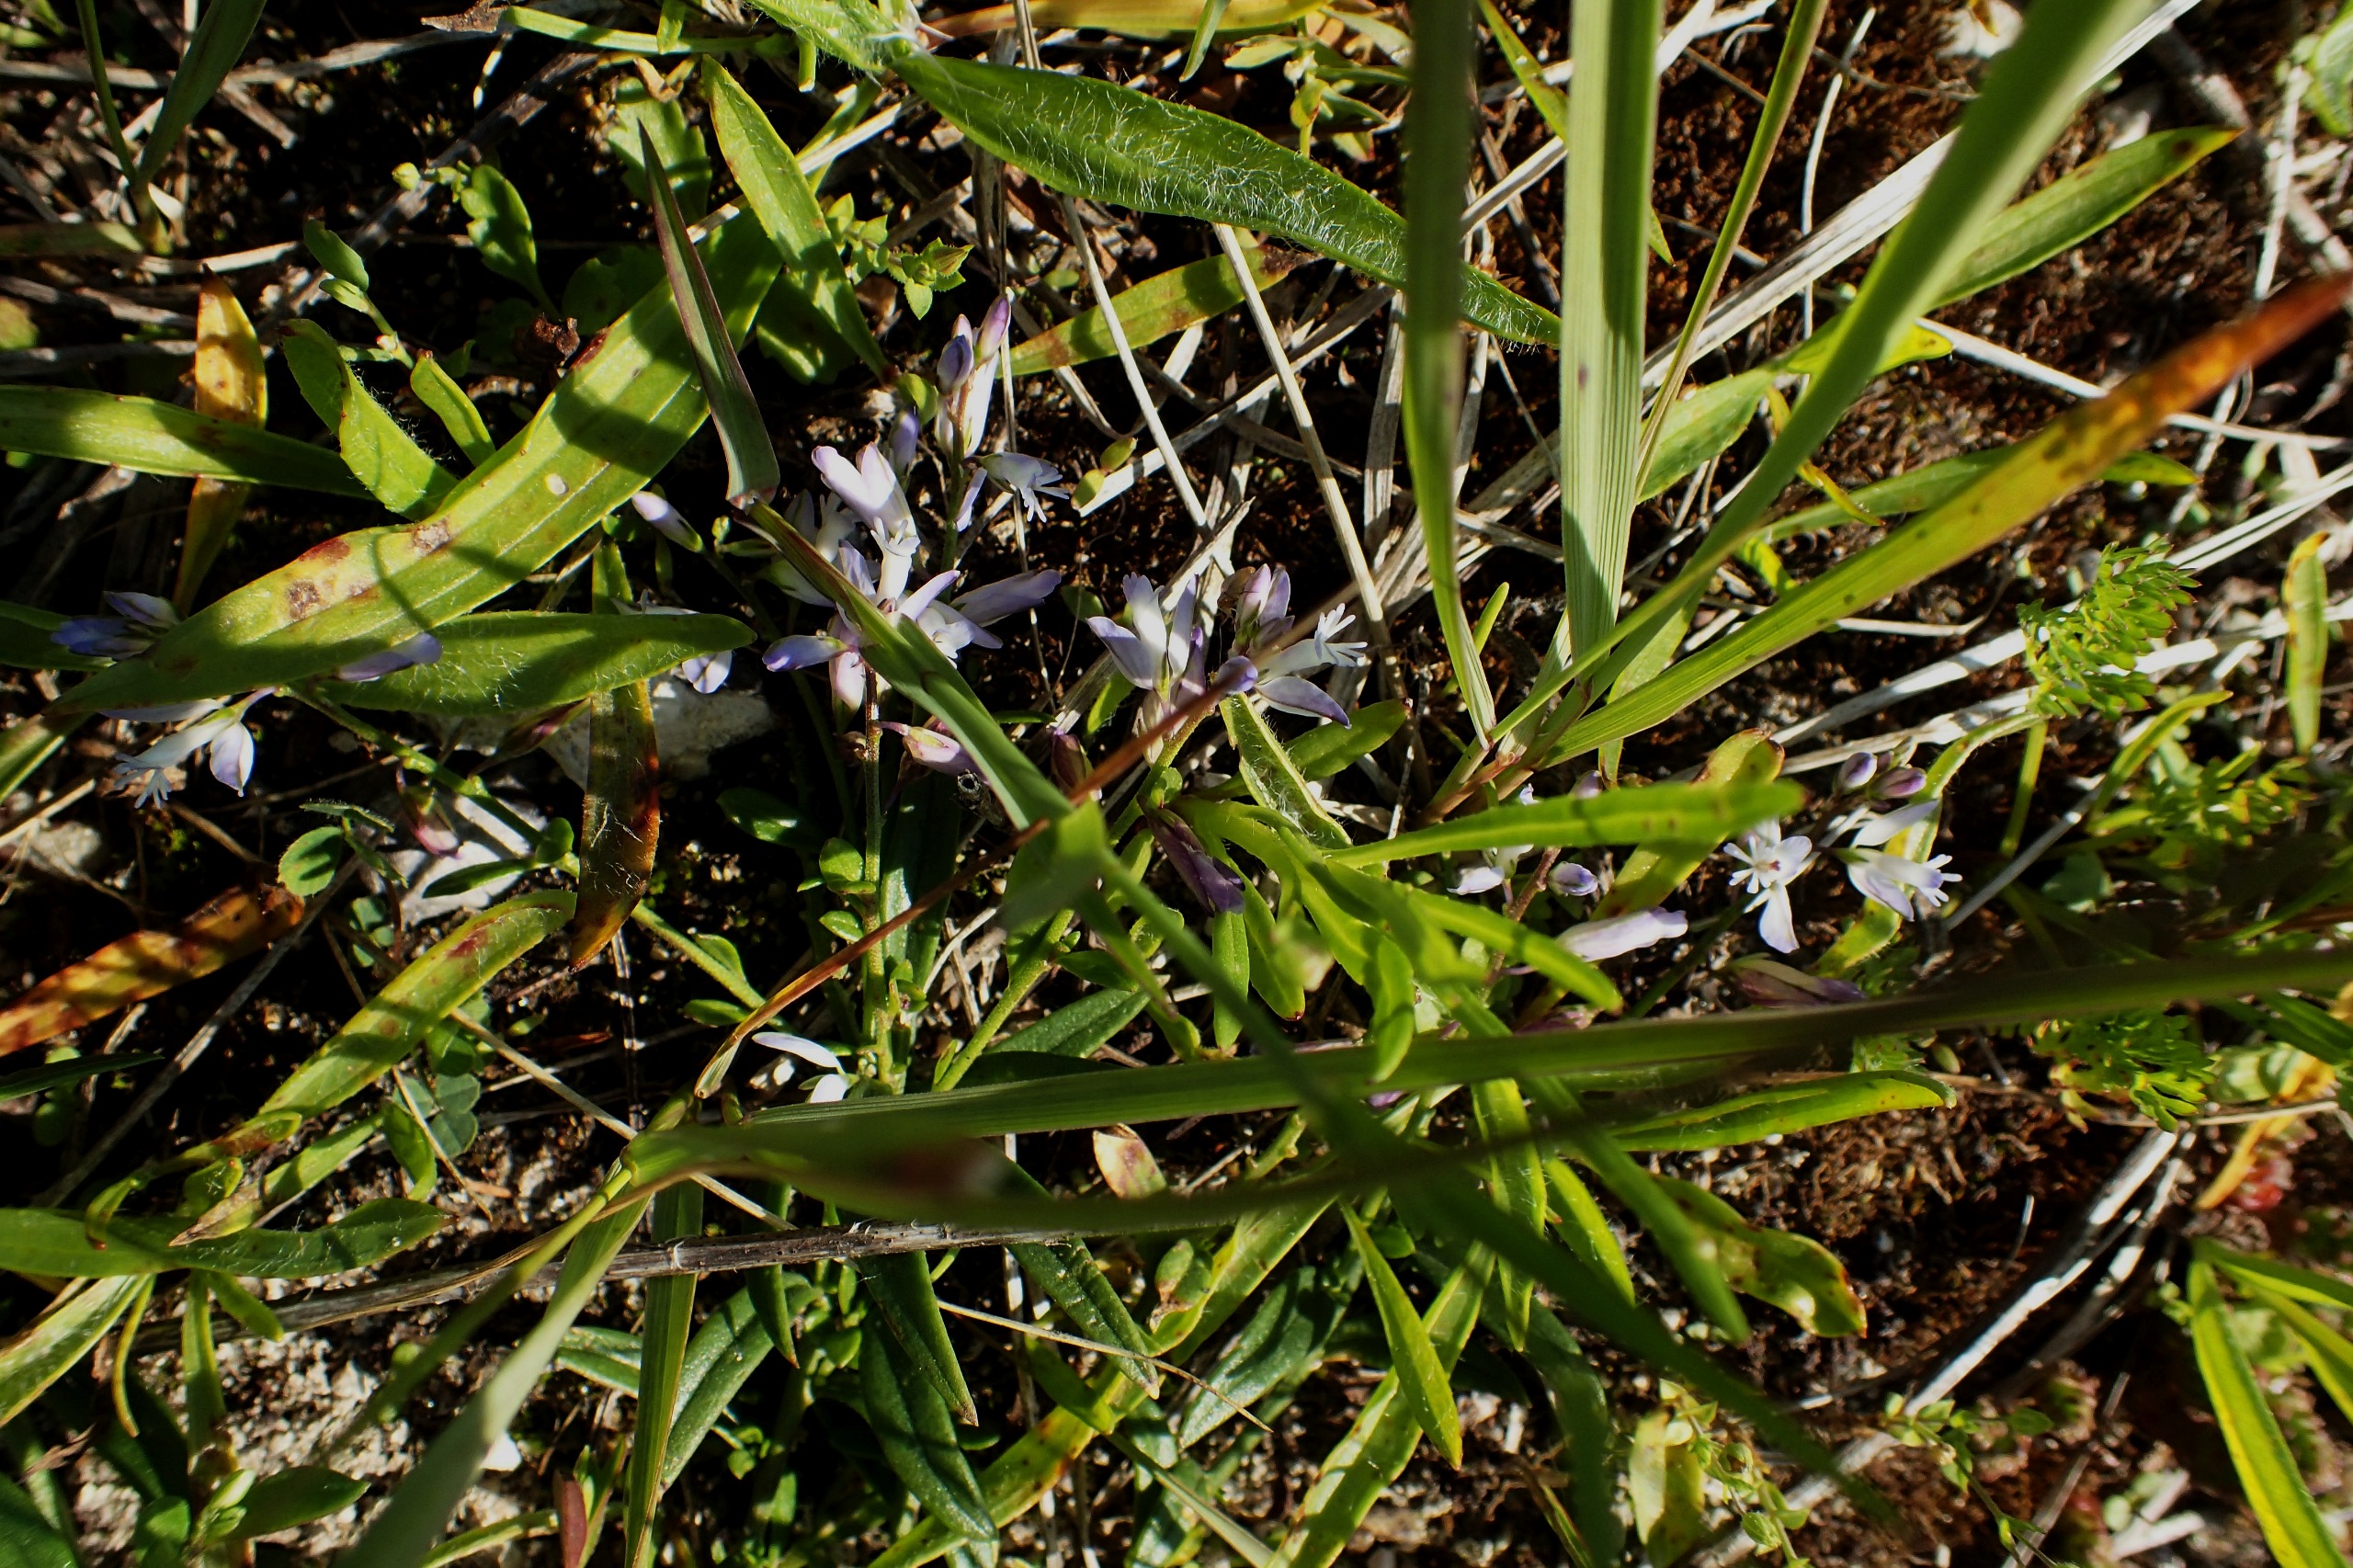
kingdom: Plantae
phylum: Tracheophyta
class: Magnoliopsida
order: Fabales
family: Polygalaceae
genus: Polygala
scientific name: Polygala vulgaris
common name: Almindelig mælkeurt
